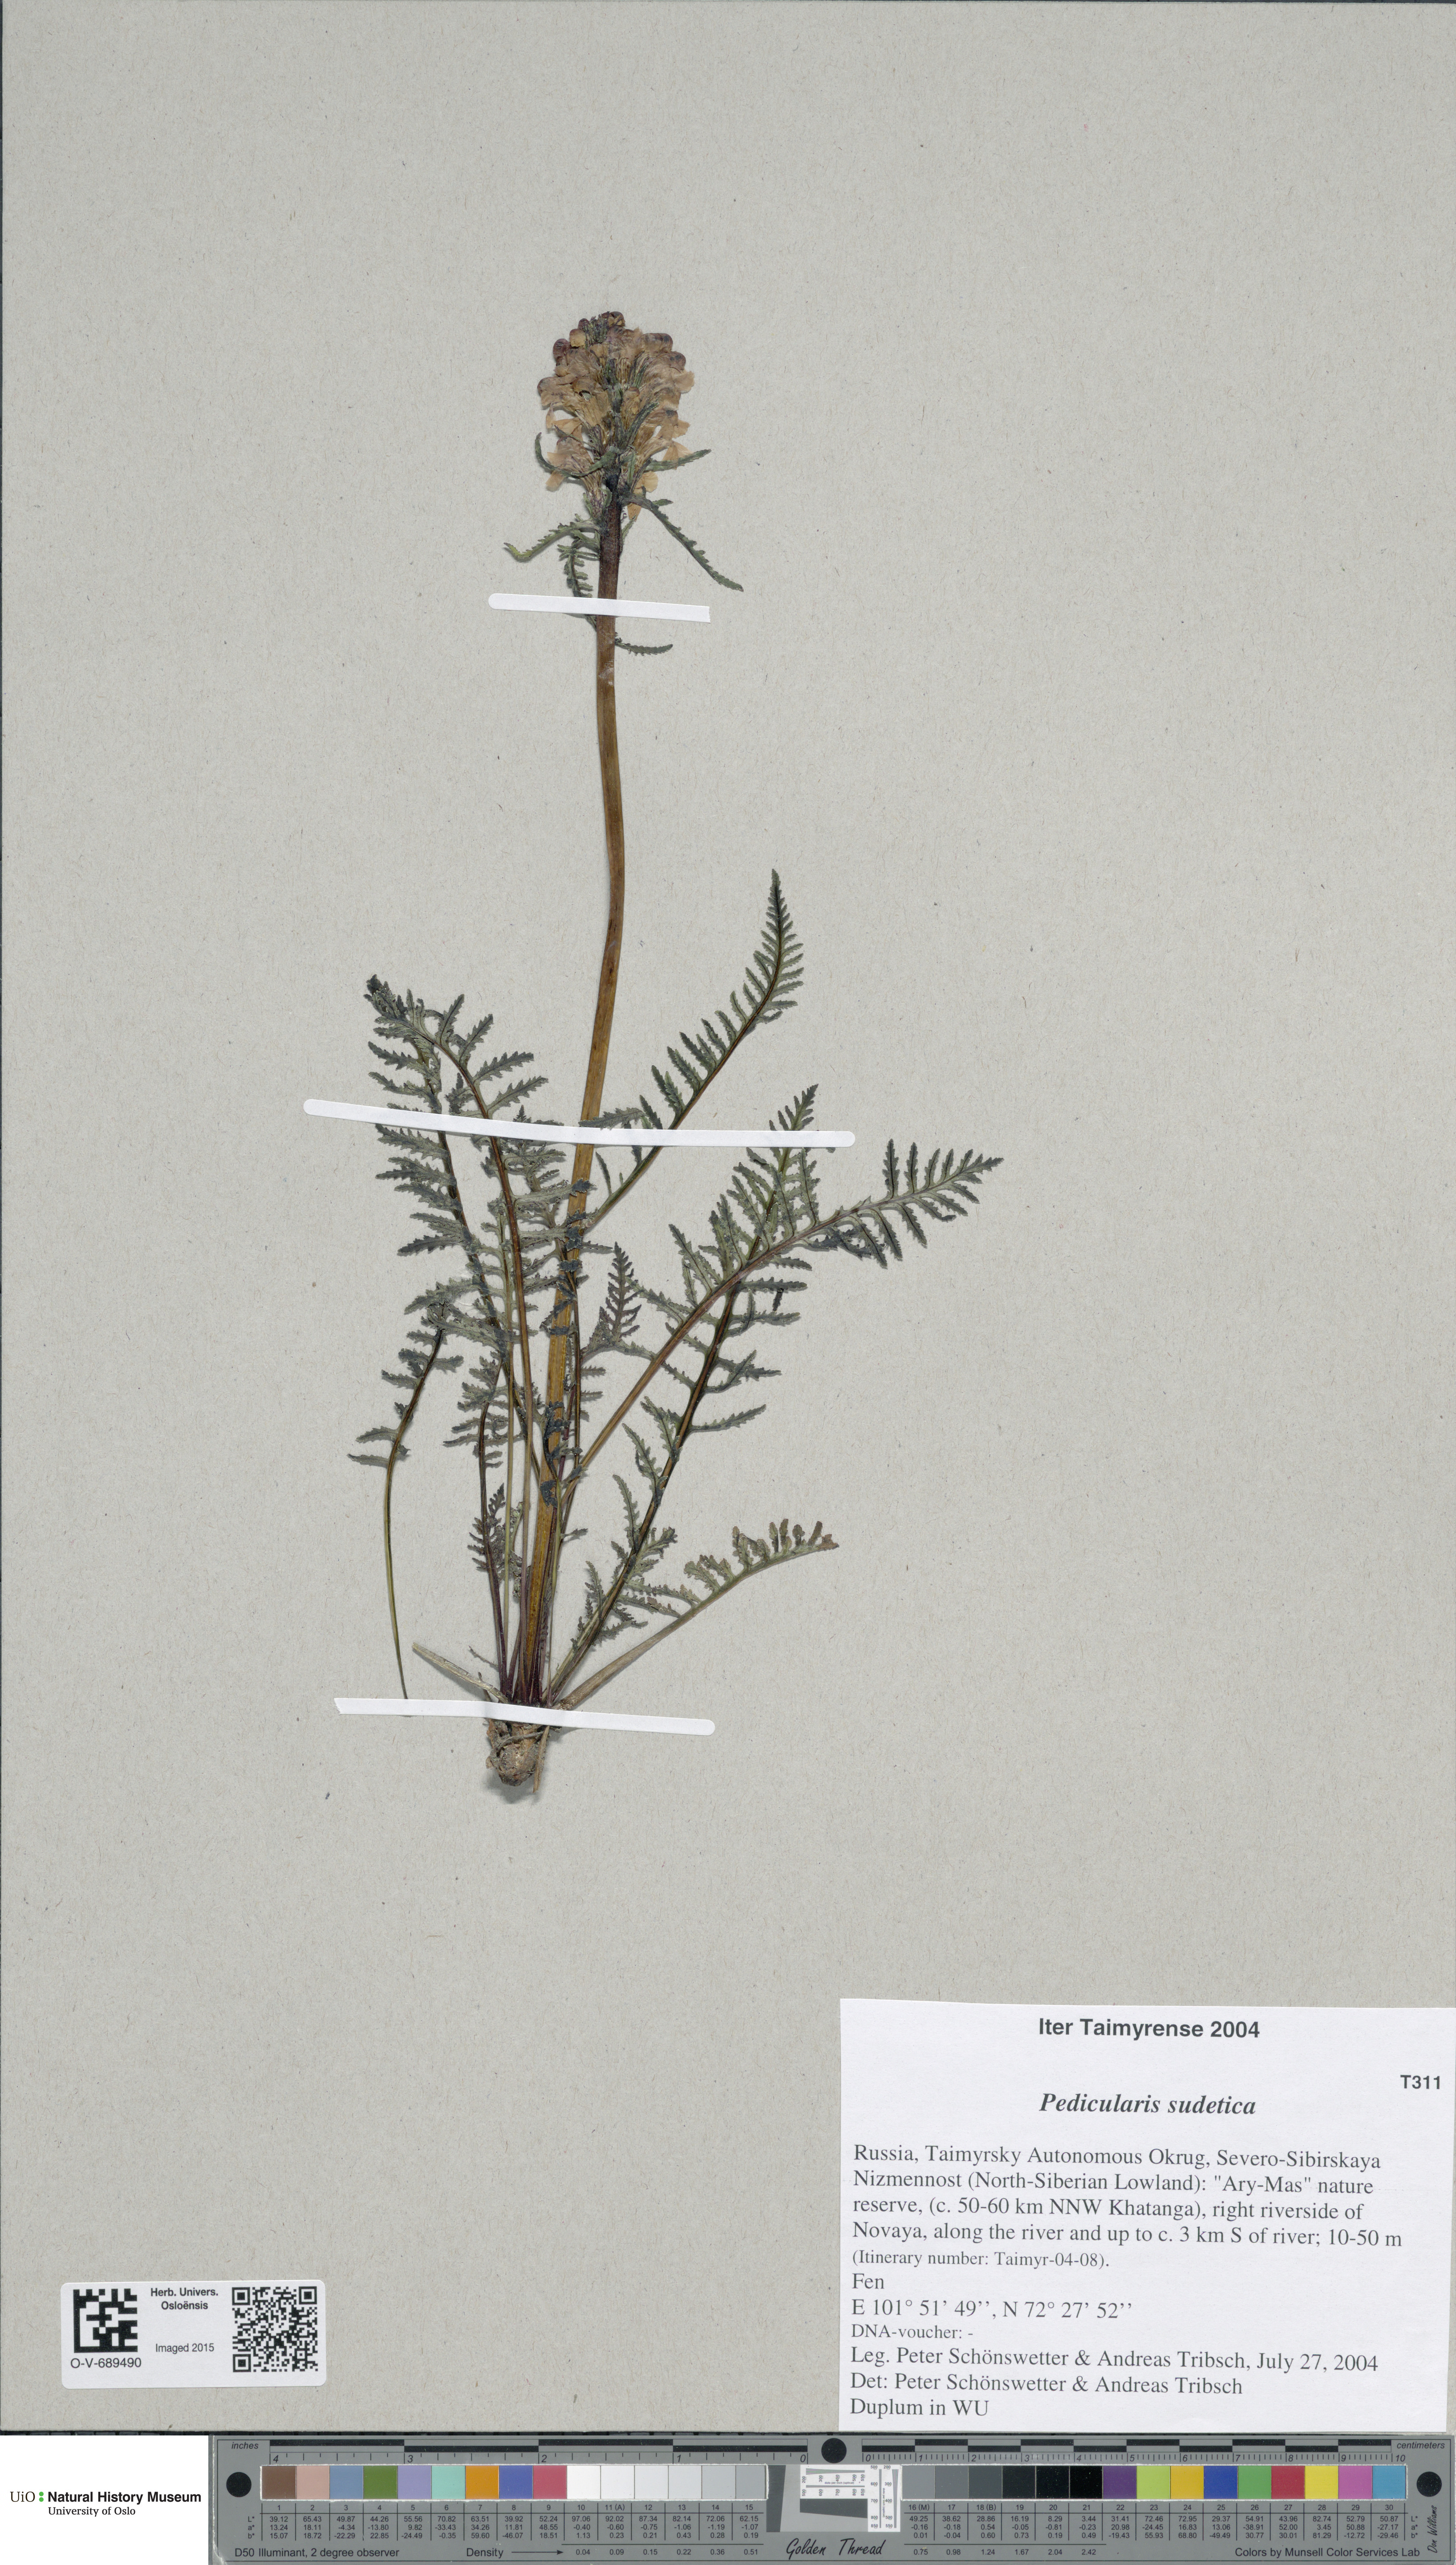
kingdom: Plantae
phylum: Tracheophyta
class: Magnoliopsida
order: Lamiales
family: Orobanchaceae
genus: Pedicularis
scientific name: Pedicularis sudetica
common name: Sudeten lousewort
